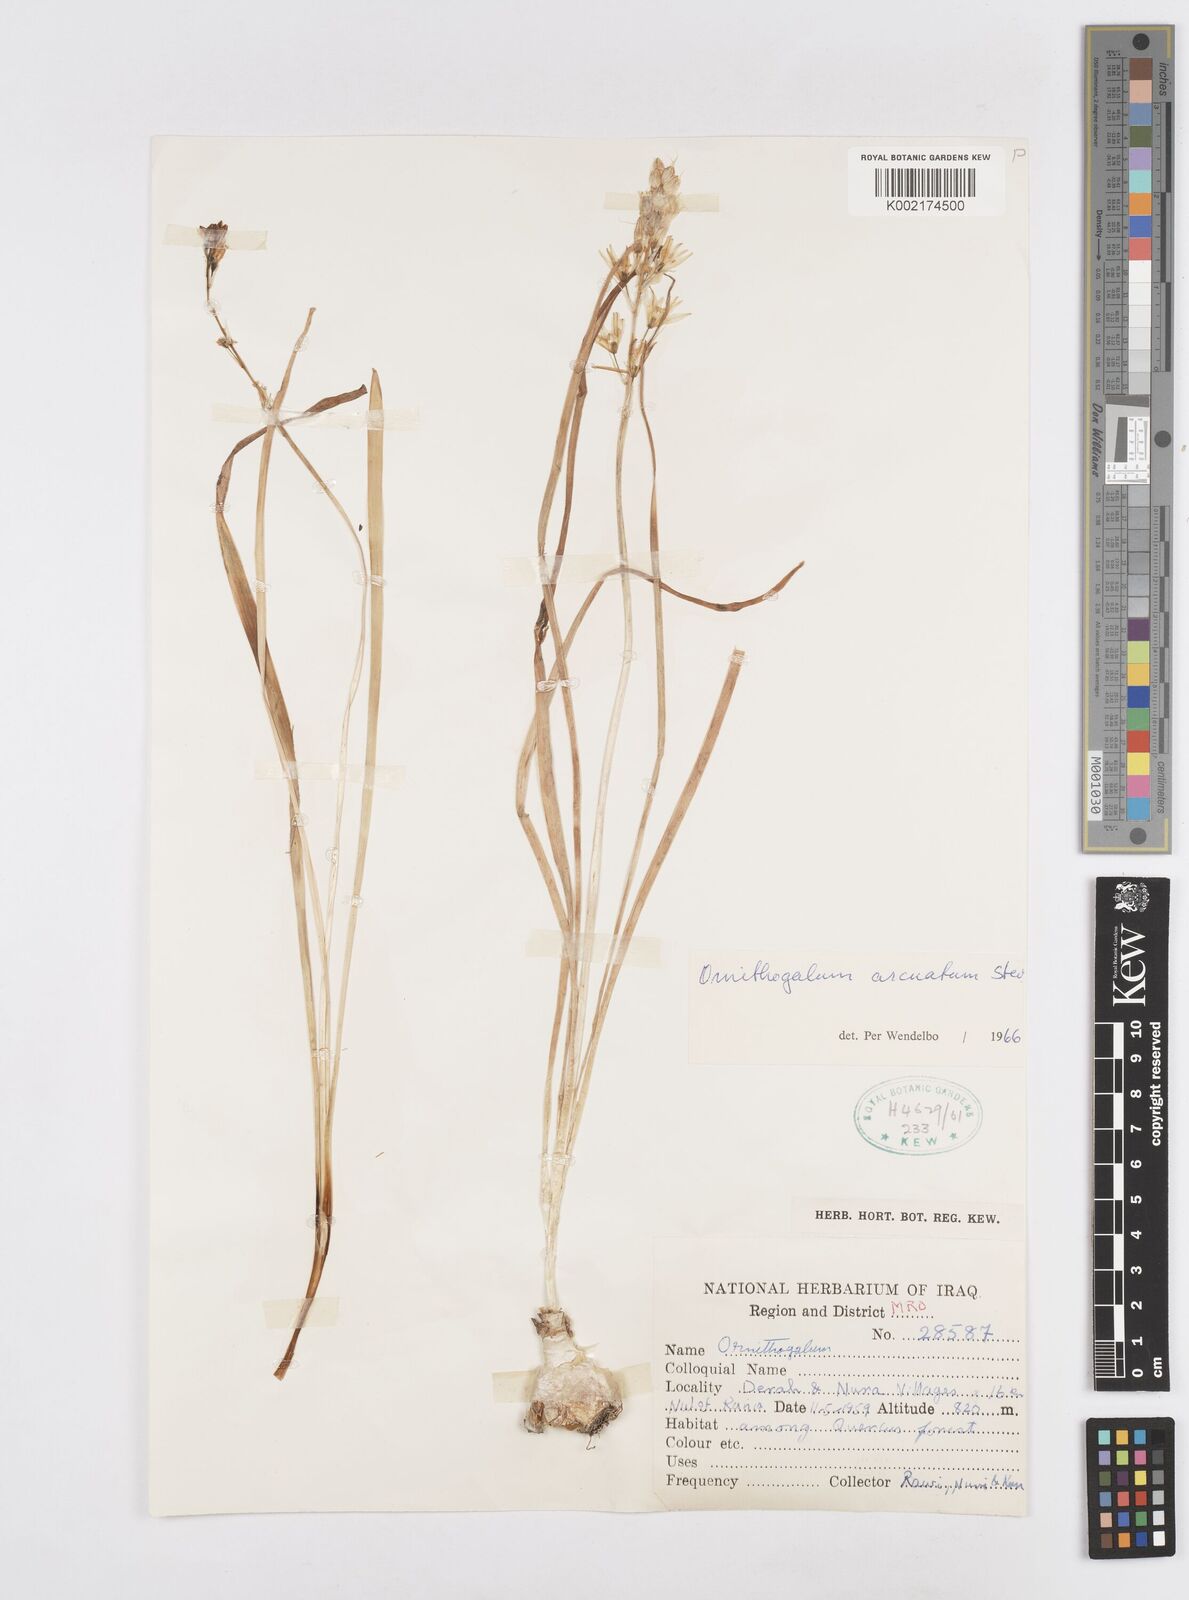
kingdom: Plantae
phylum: Tracheophyta
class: Liliopsida
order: Asparagales
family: Asparagaceae
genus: Ornithogalum
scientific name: Ornithogalum arcuatum
